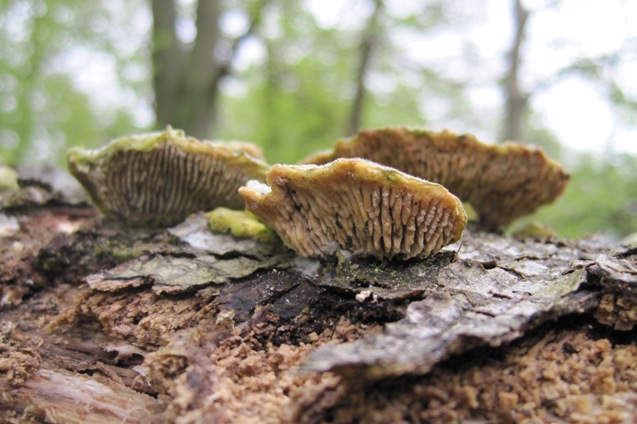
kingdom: Fungi
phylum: Basidiomycota
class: Agaricomycetes
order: Polyporales
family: Polyporaceae
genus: Lenzites
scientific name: Lenzites betulinus
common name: birke-læderporesvamp
